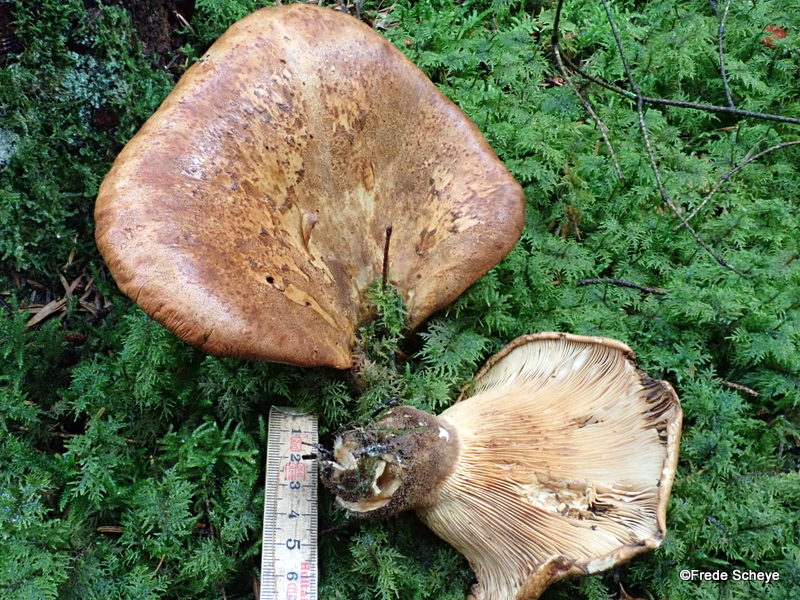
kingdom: Fungi
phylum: Basidiomycota
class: Agaricomycetes
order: Boletales
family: Tapinellaceae
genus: Tapinella
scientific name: Tapinella atrotomentosa
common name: sortfiltet viftesvamp
